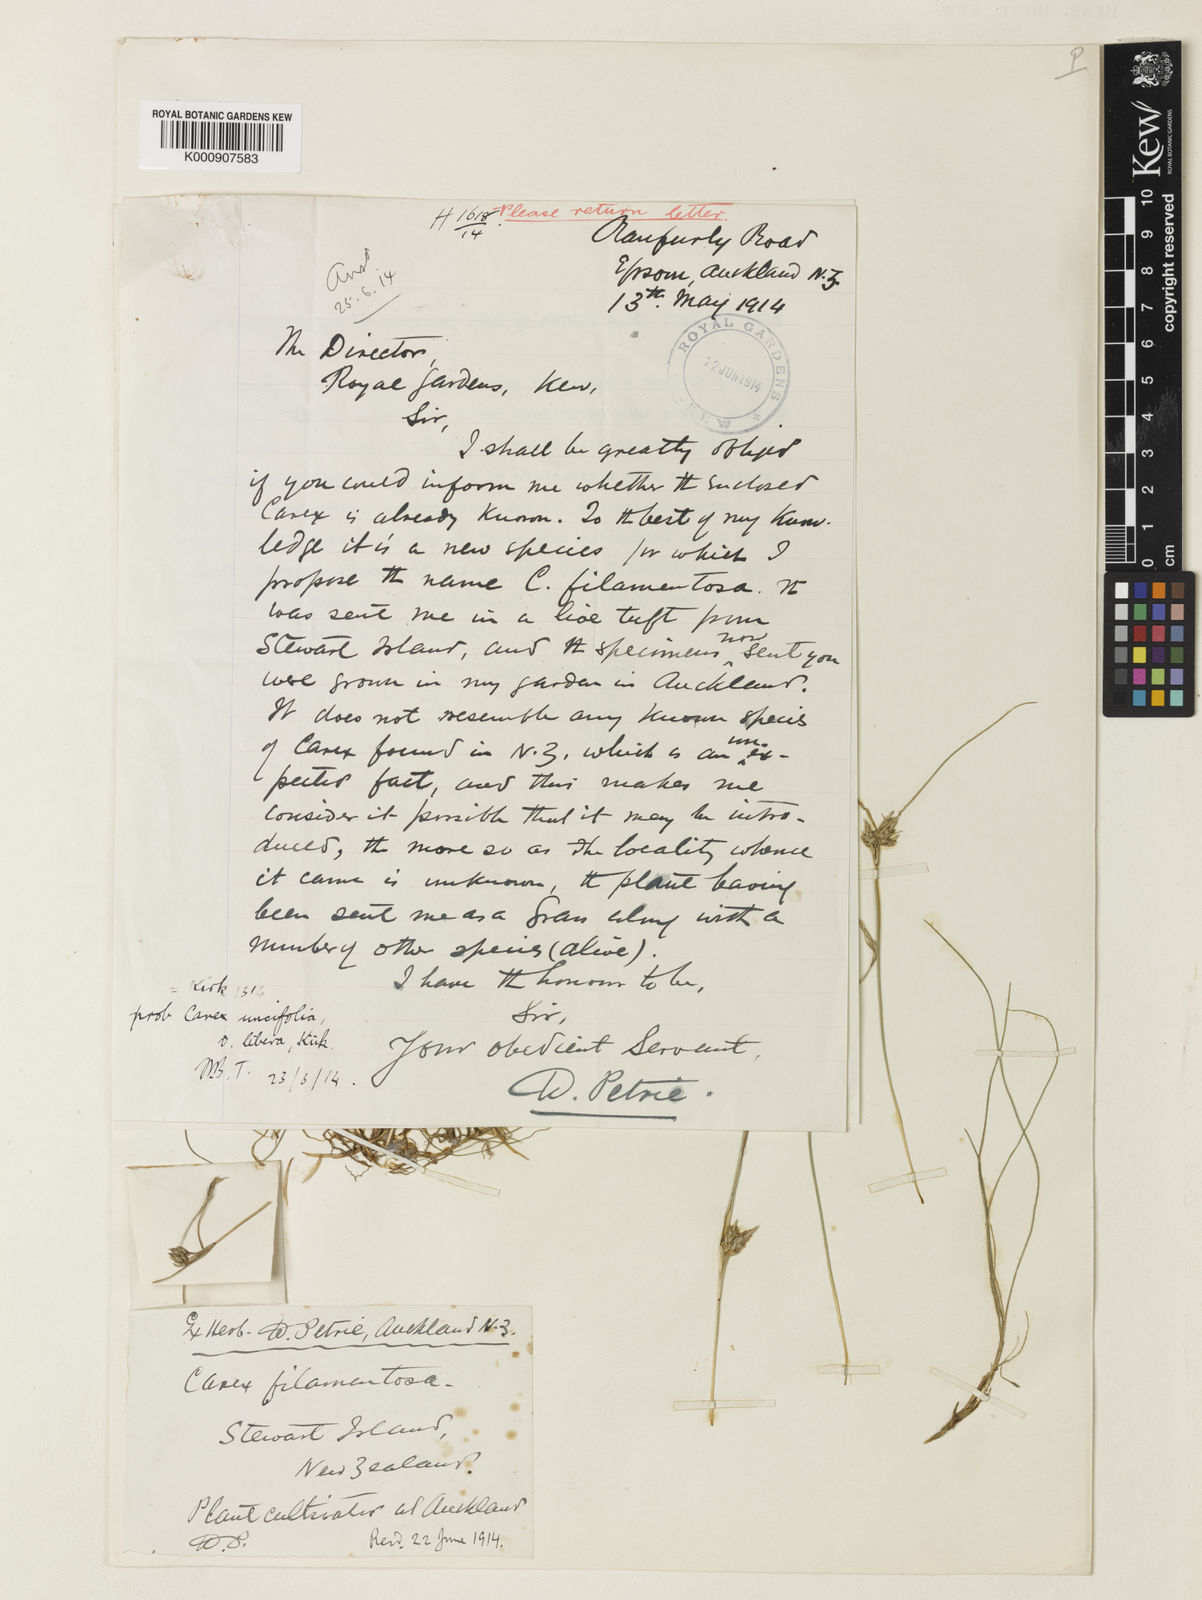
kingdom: Plantae
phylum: Tracheophyta
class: Liliopsida
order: Poales
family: Cyperaceae
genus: Carex
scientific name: Carex filamentosa
